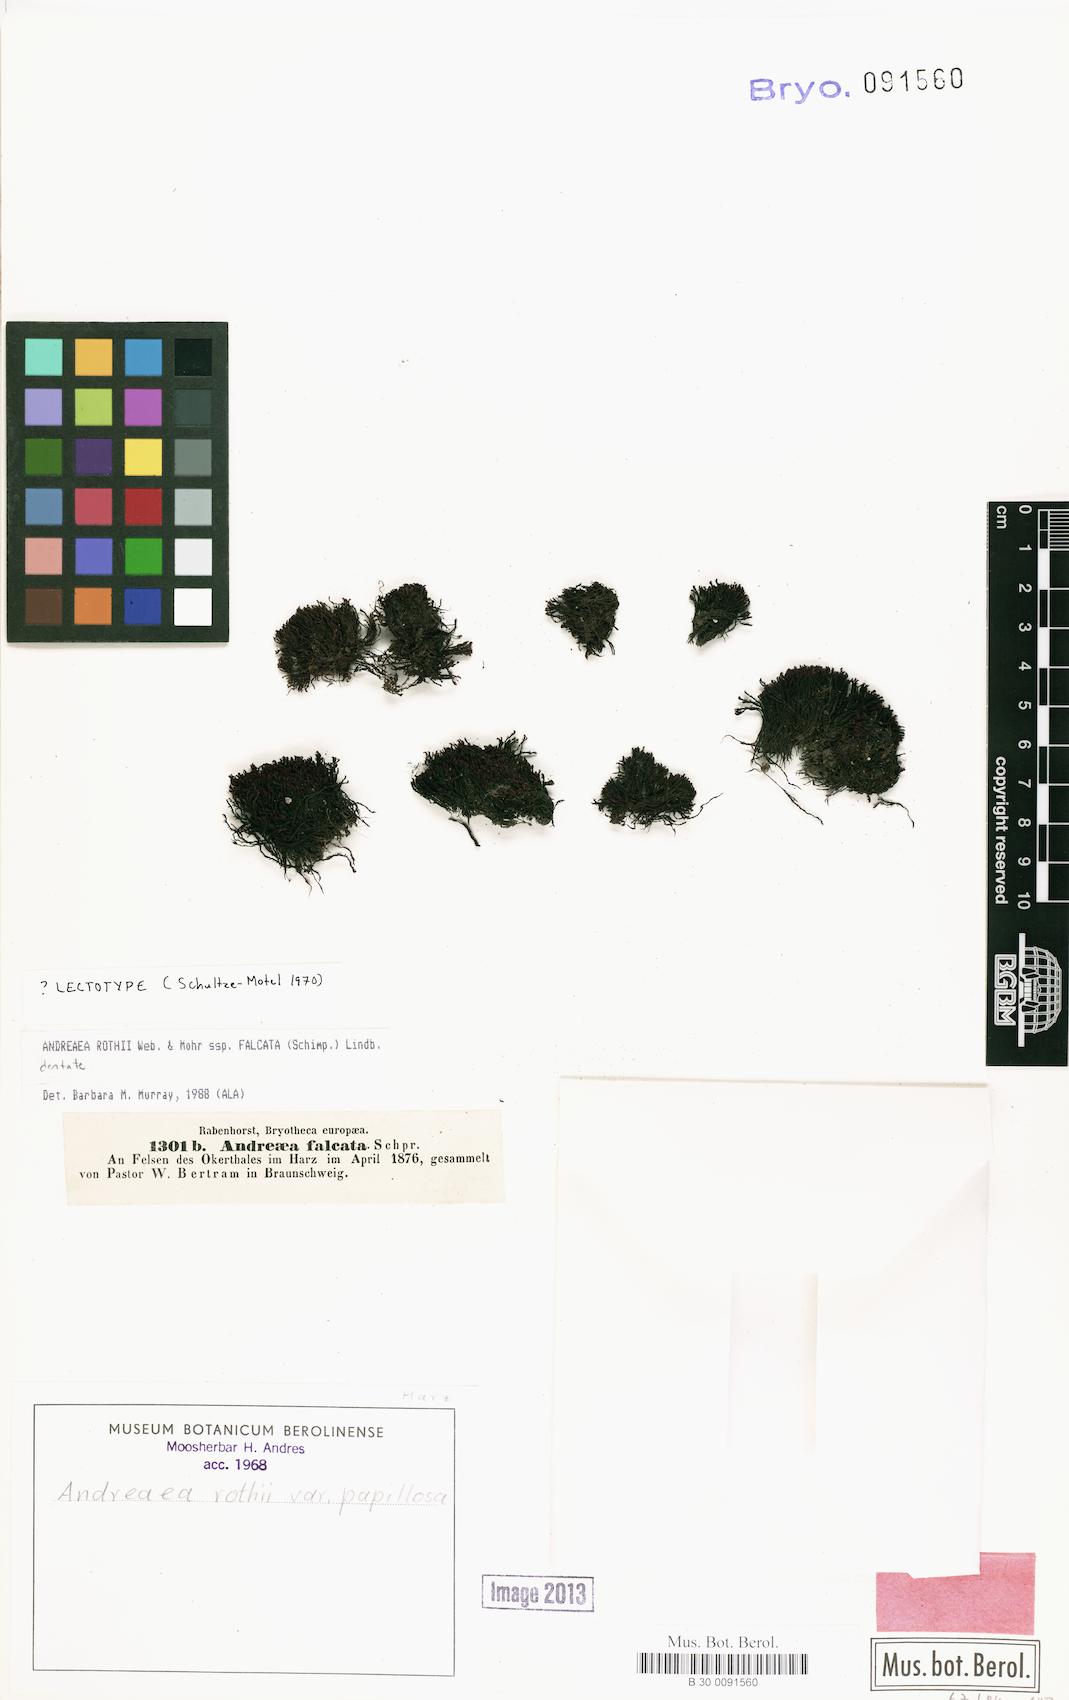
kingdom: Plantae
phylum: Bryophyta
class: Andreaeopsida
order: Andreaeales
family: Andreaeaceae
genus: Andreaea
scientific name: Andreaea rothii
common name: Dusky rock moss
